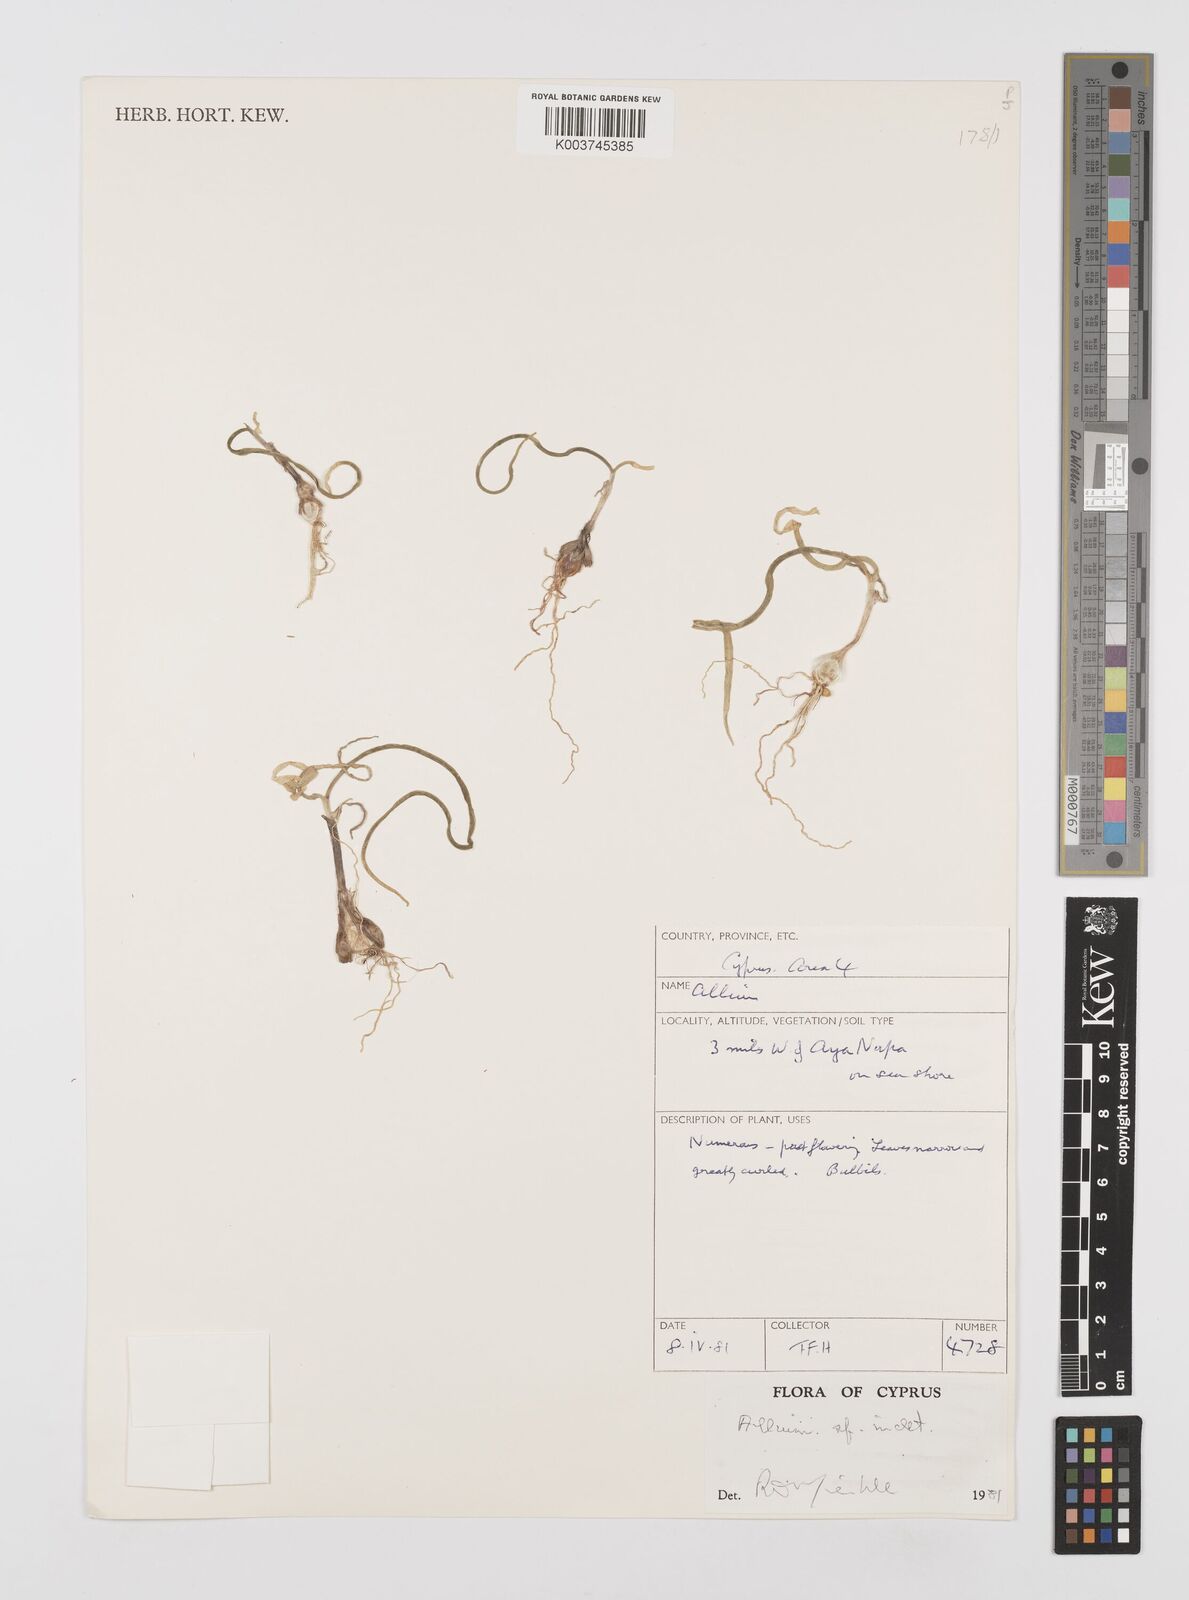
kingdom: Plantae
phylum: Tracheophyta
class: Liliopsida
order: Asparagales
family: Amaryllidaceae
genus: Allium
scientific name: Allium
